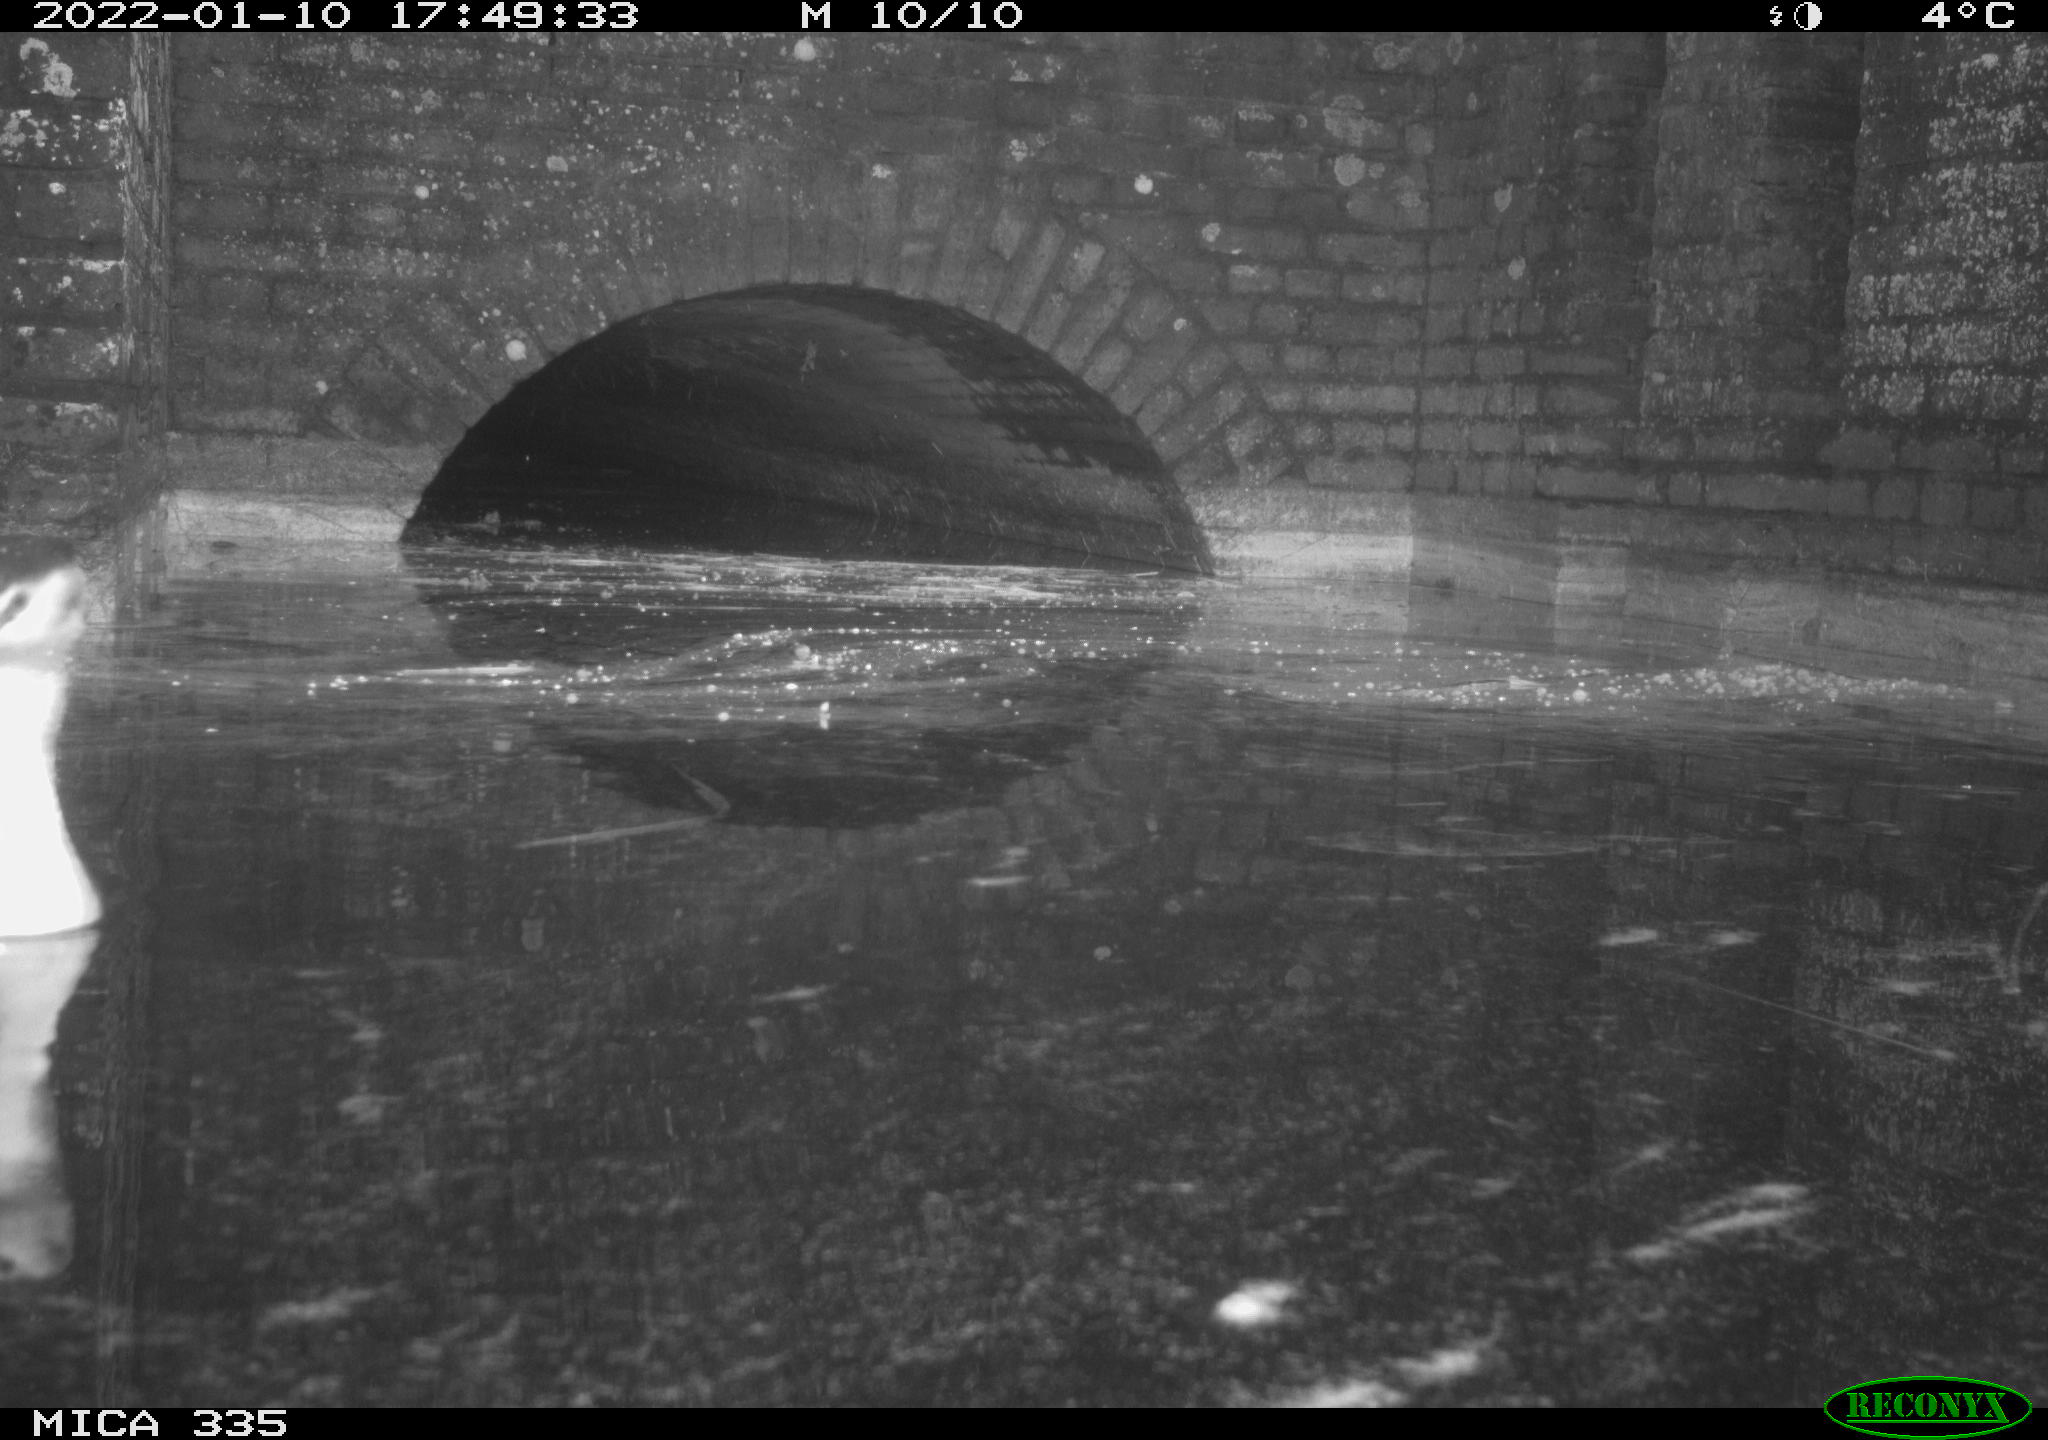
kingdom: Animalia
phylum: Chordata
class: Aves
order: Podicipediformes
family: Podicipedidae
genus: Podiceps
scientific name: Podiceps cristatus
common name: Great crested grebe
